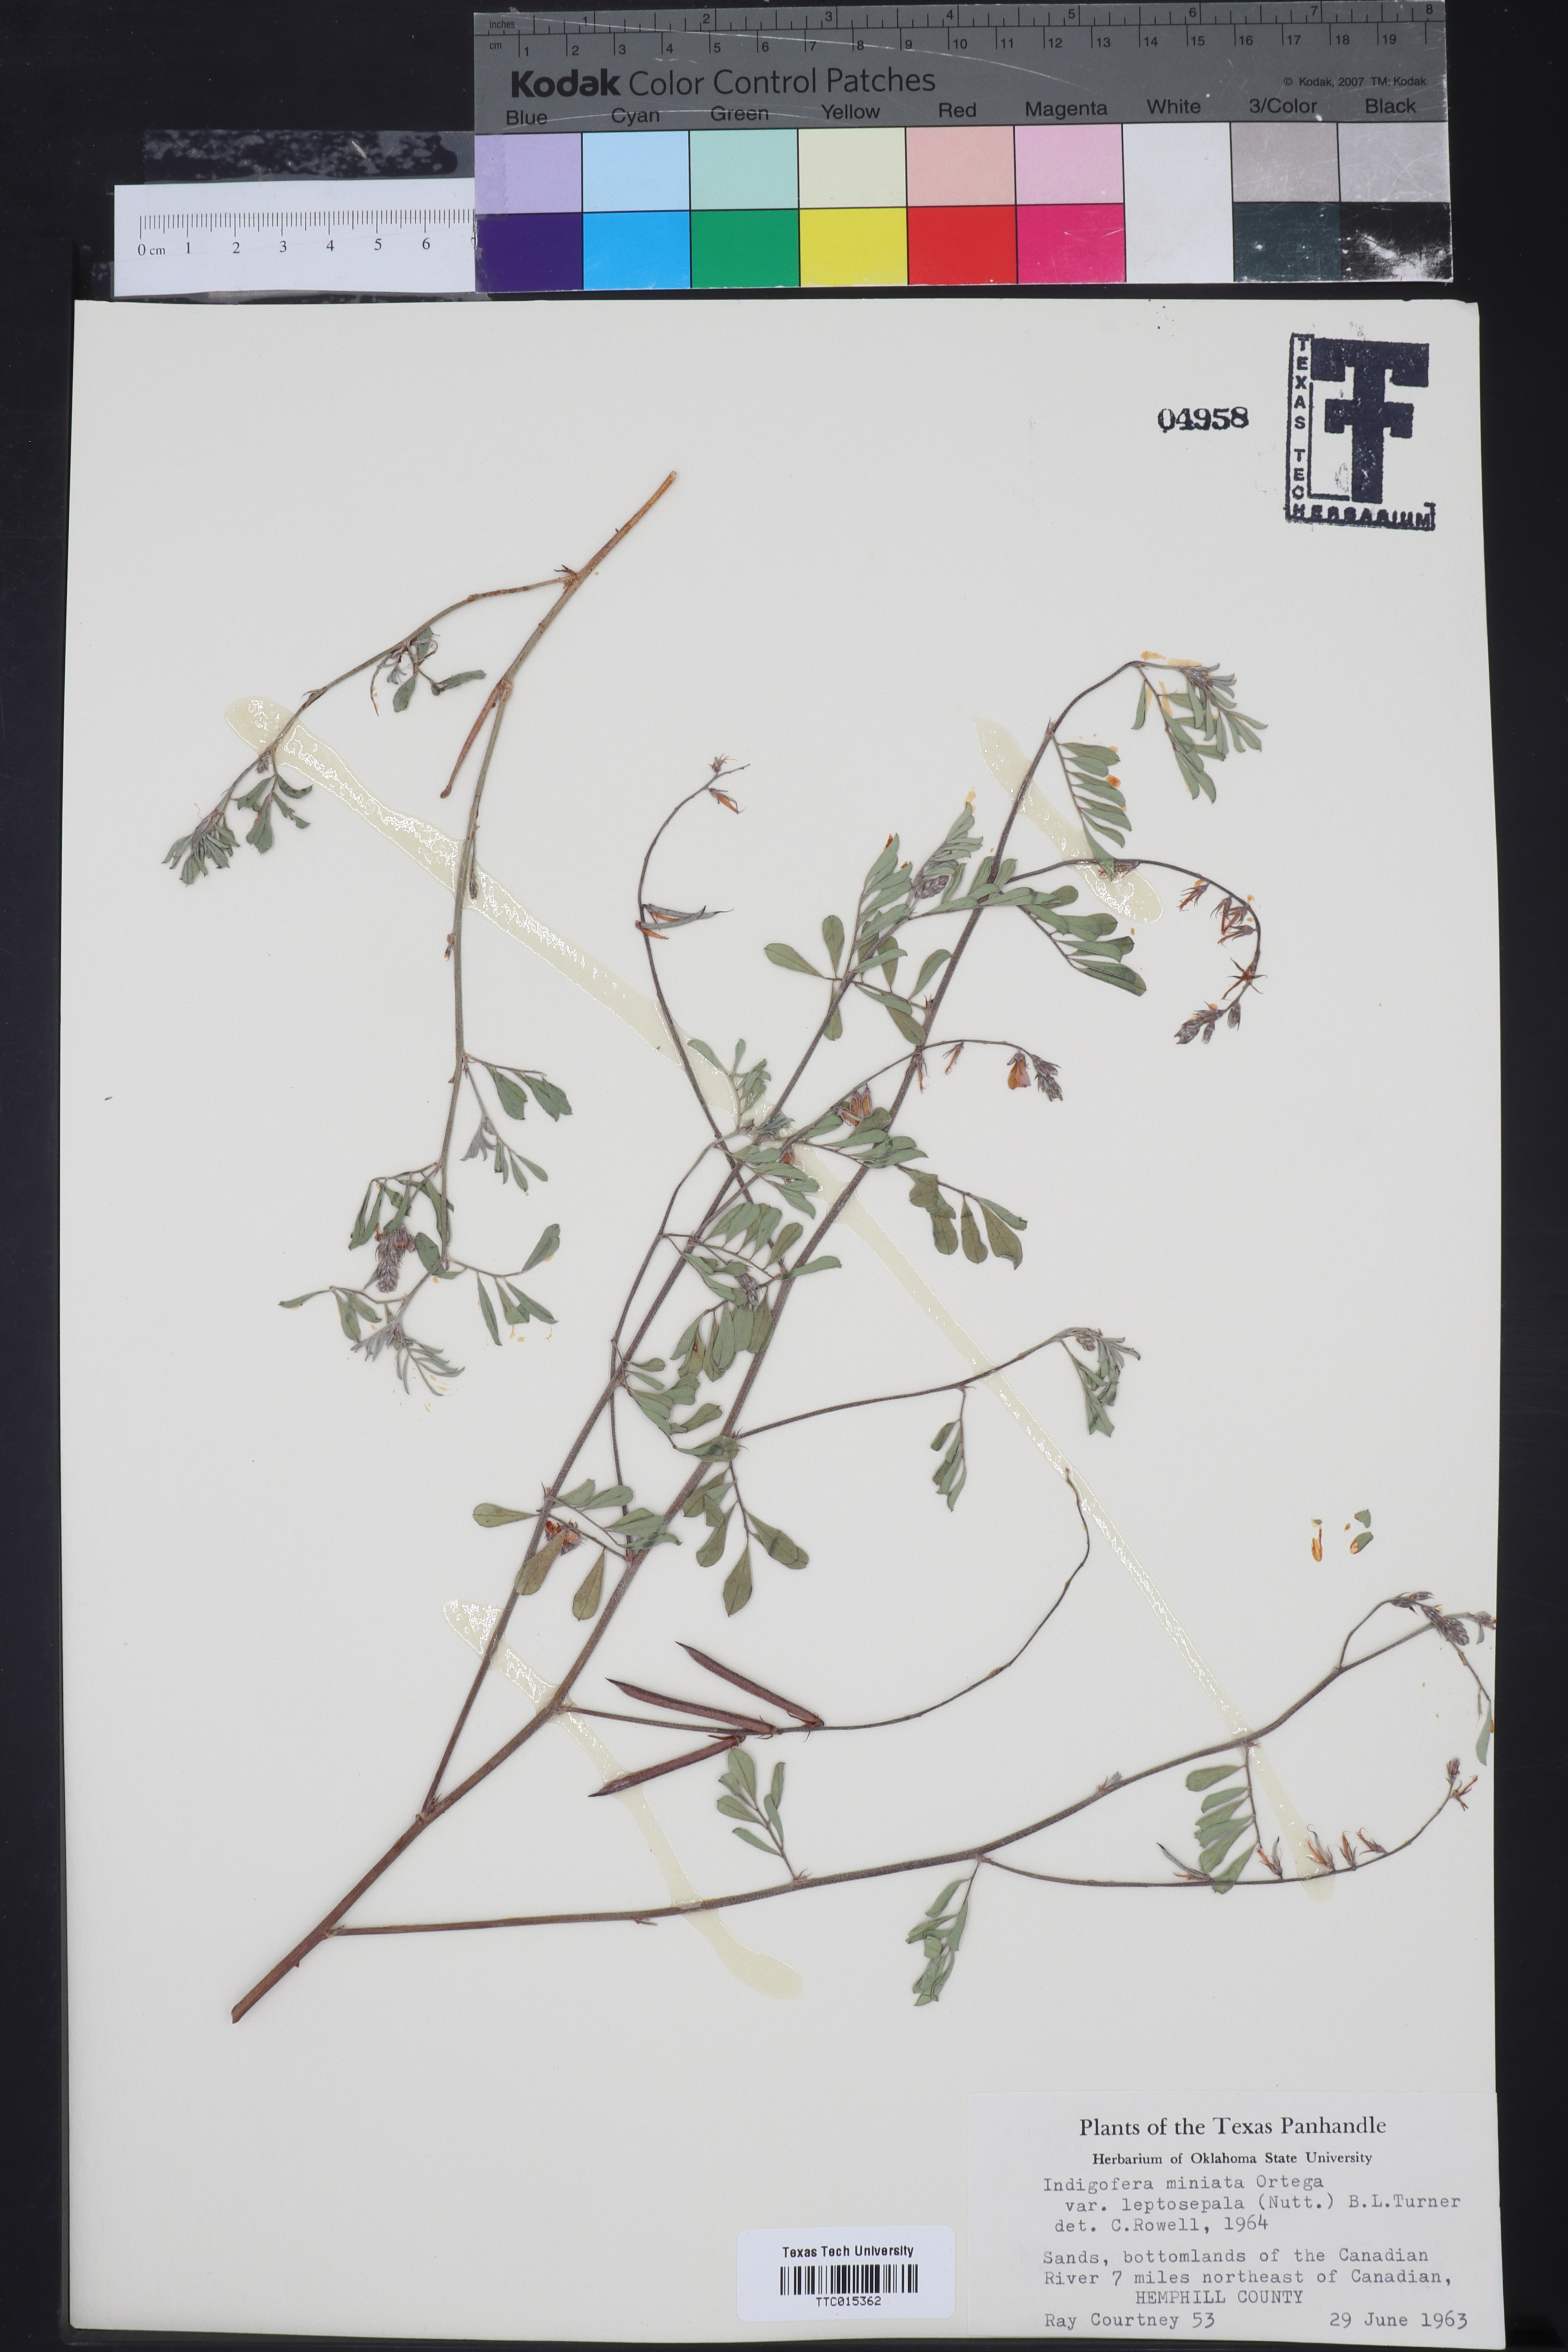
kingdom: Plantae
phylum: Tracheophyta
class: Magnoliopsida
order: Fabales
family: Fabaceae
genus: Indigofera
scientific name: Indigofera miniata
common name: Coast indigo
